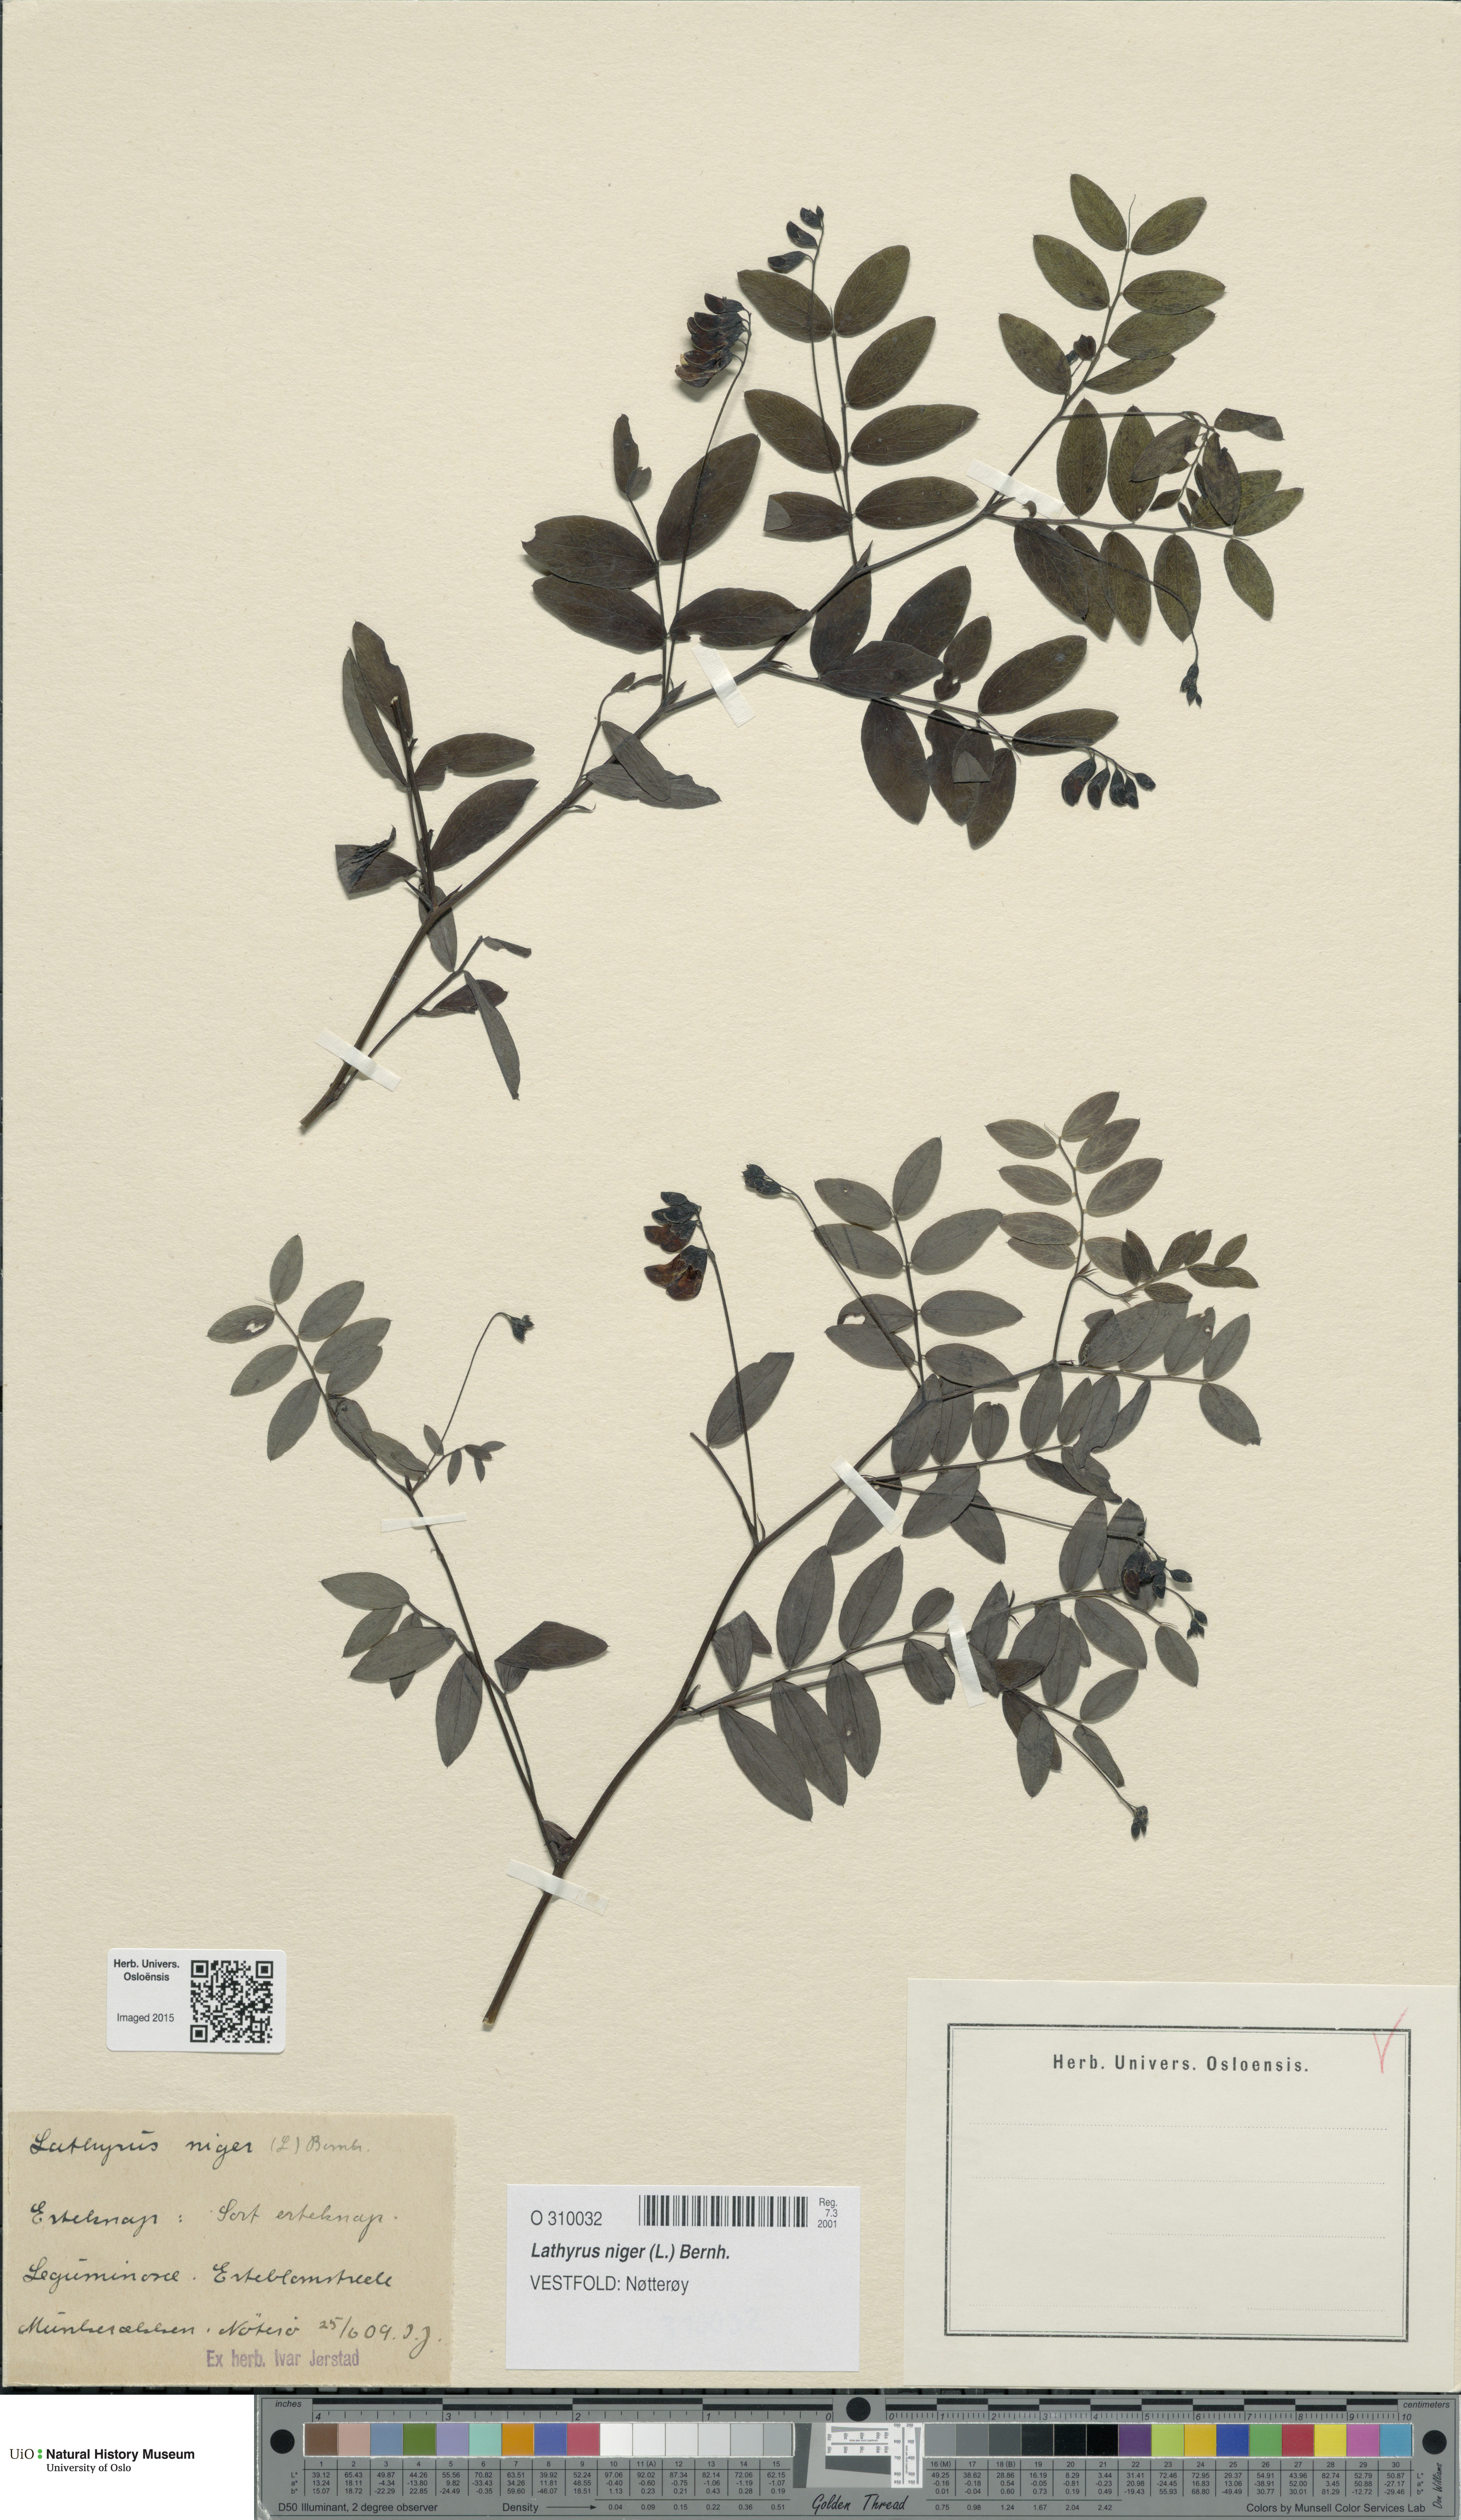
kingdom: Plantae
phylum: Tracheophyta
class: Magnoliopsida
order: Fabales
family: Fabaceae
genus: Lathyrus
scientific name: Lathyrus niger
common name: Black pea
